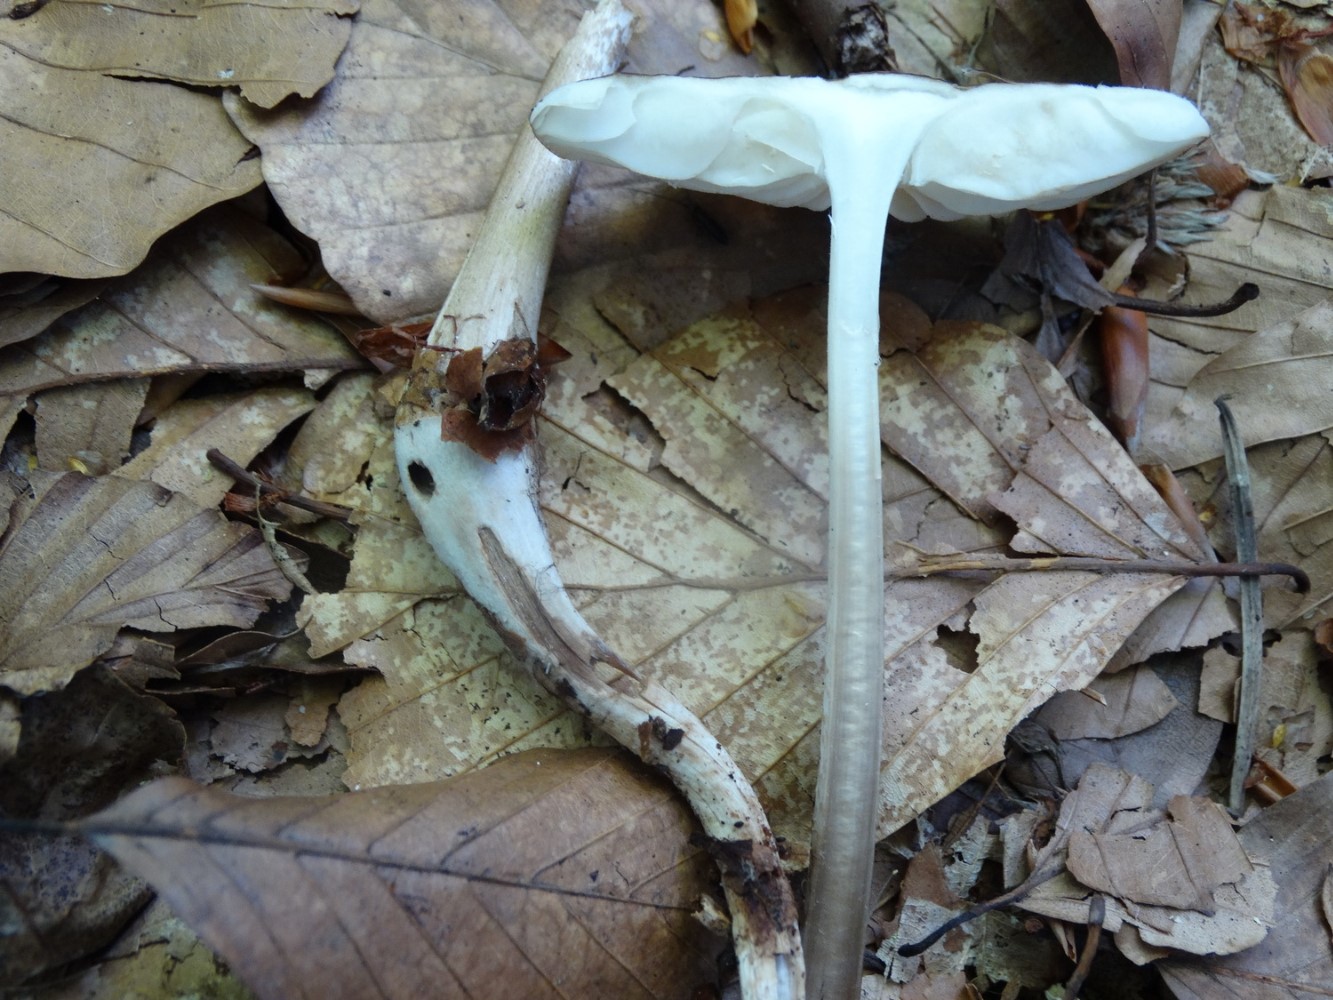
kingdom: Fungi
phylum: Basidiomycota
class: Agaricomycetes
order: Agaricales
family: Physalacriaceae
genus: Hymenopellis
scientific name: Hymenopellis radicata
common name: almindelig pælerodshat
